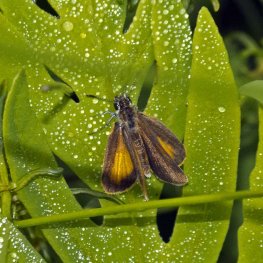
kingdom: Animalia
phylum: Arthropoda
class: Insecta
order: Lepidoptera
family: Hesperiidae
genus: Ancyloxypha
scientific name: Ancyloxypha numitor
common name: Least Skipper
